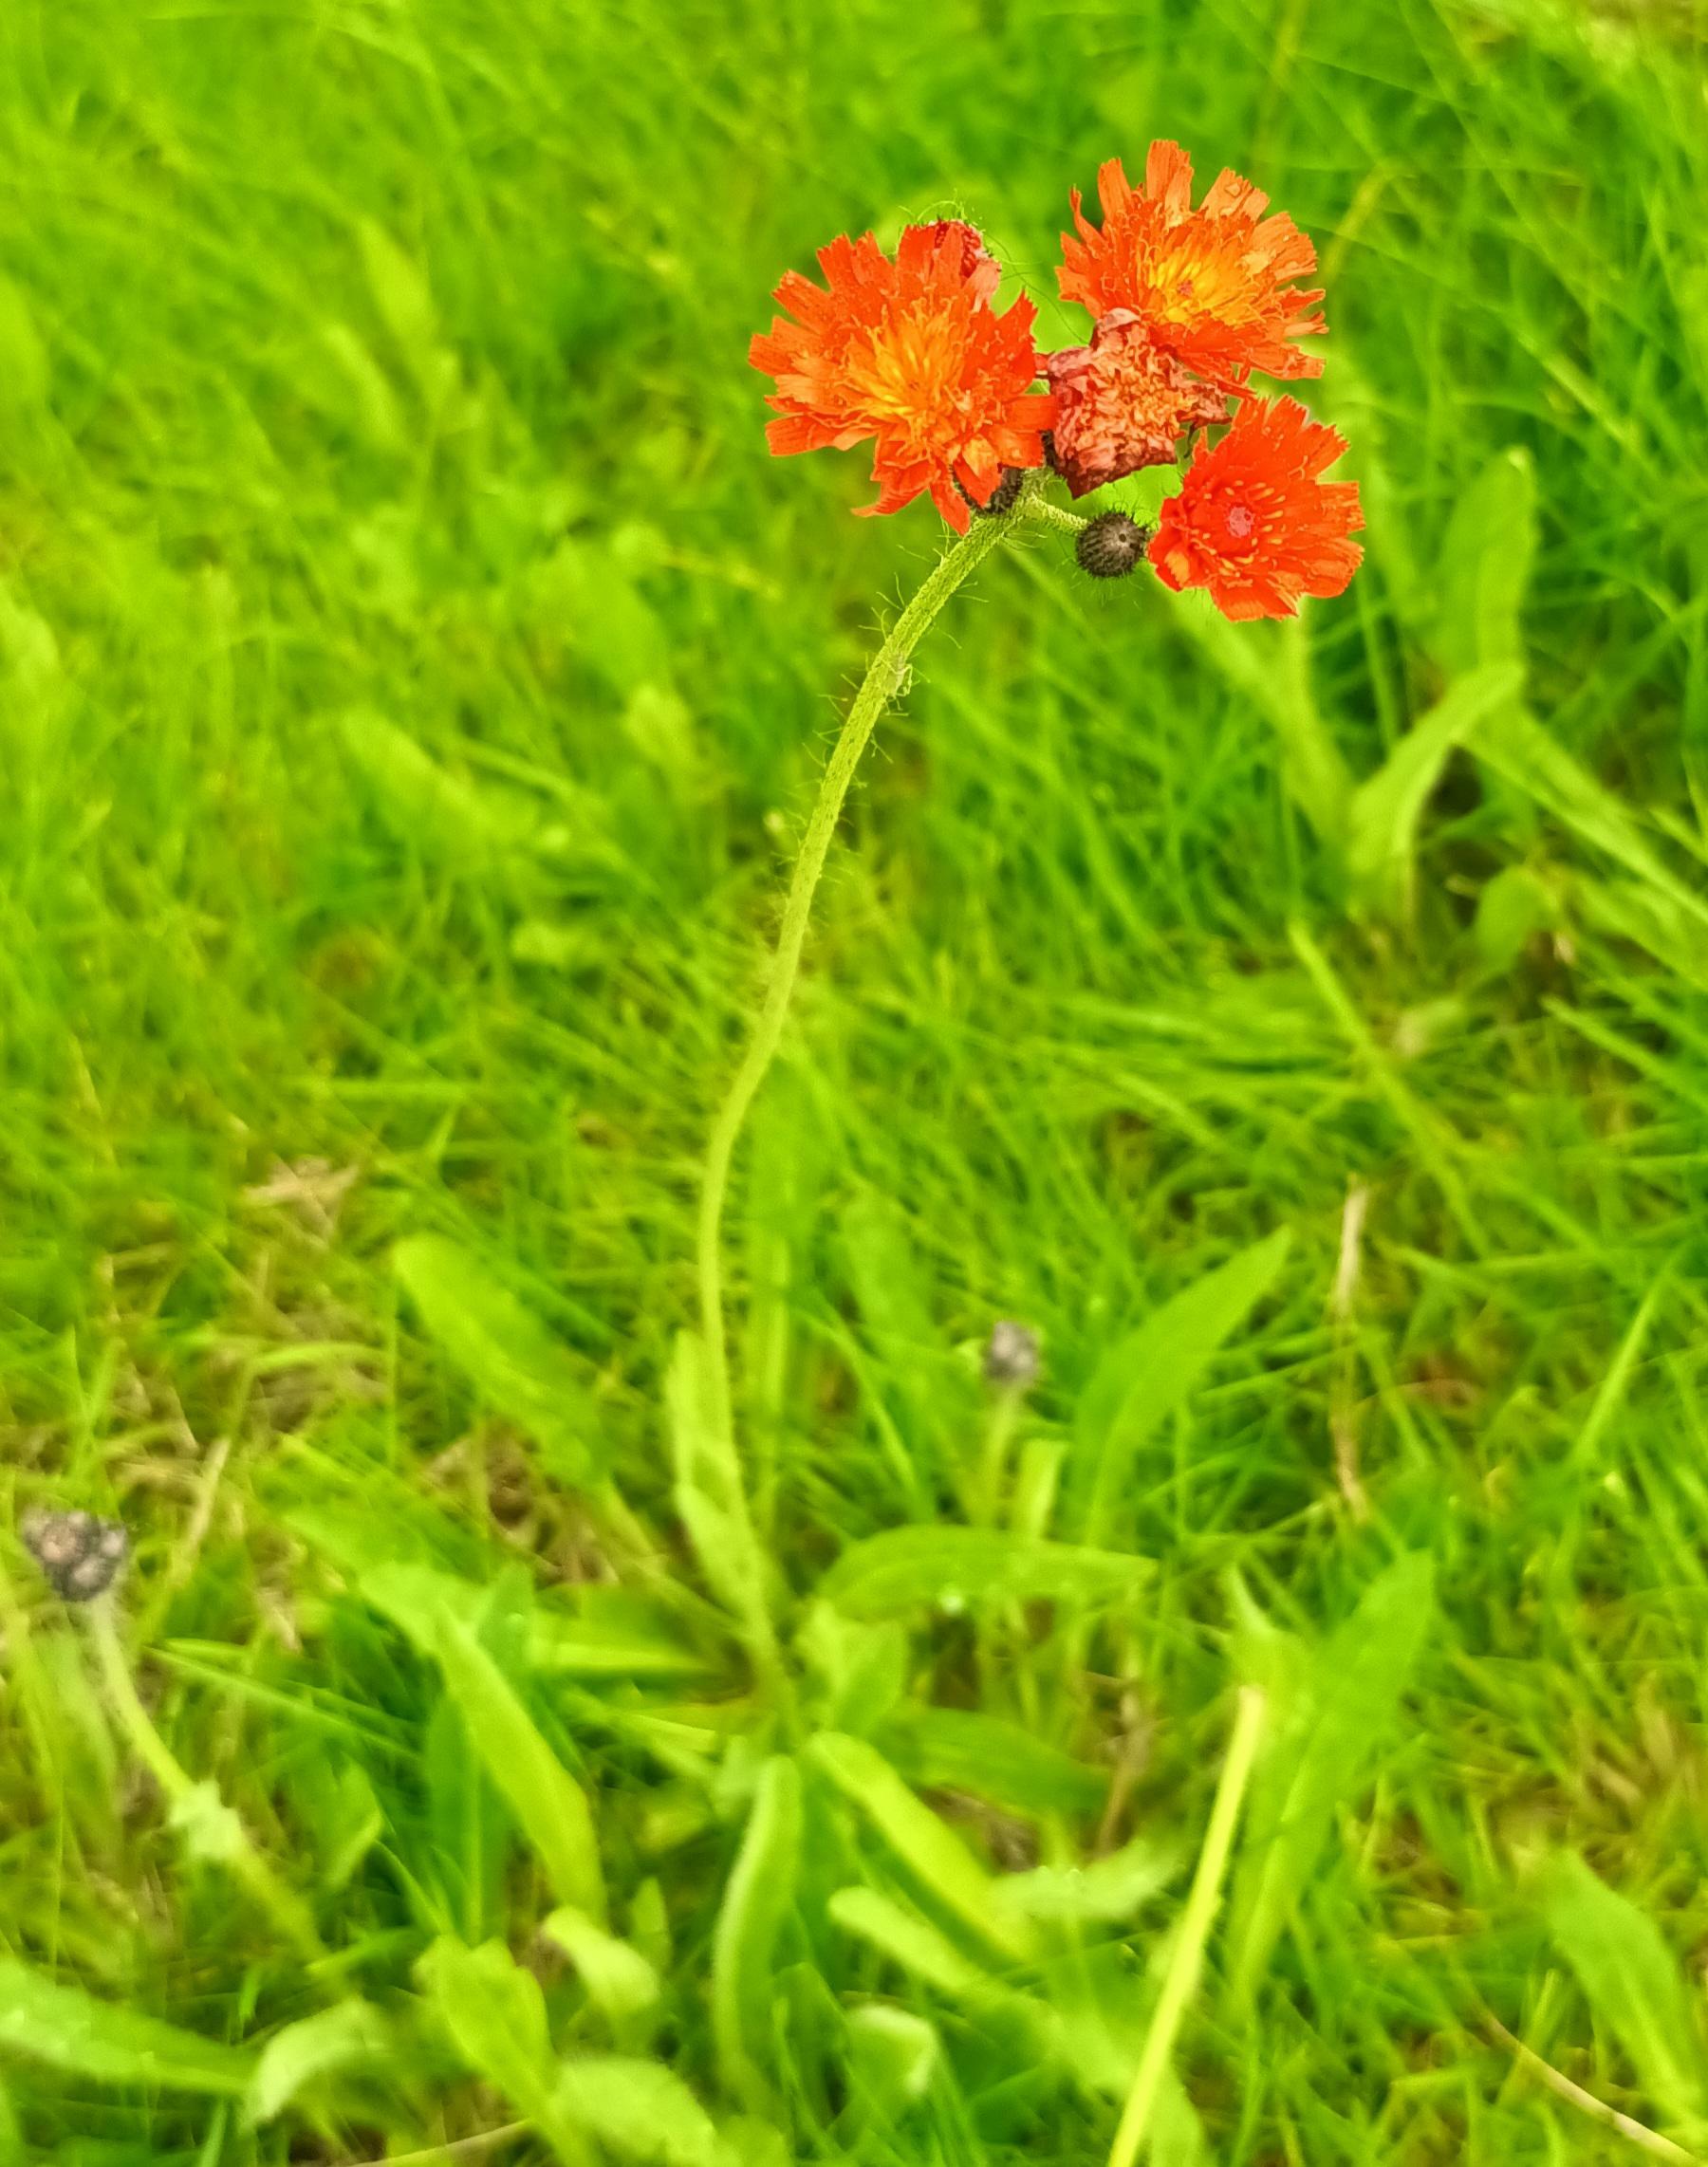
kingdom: Plantae
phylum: Tracheophyta
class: Magnoliopsida
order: Asterales
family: Asteraceae
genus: Pilosella
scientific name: Pilosella aurantiaca
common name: Pomerans-høgeurt
